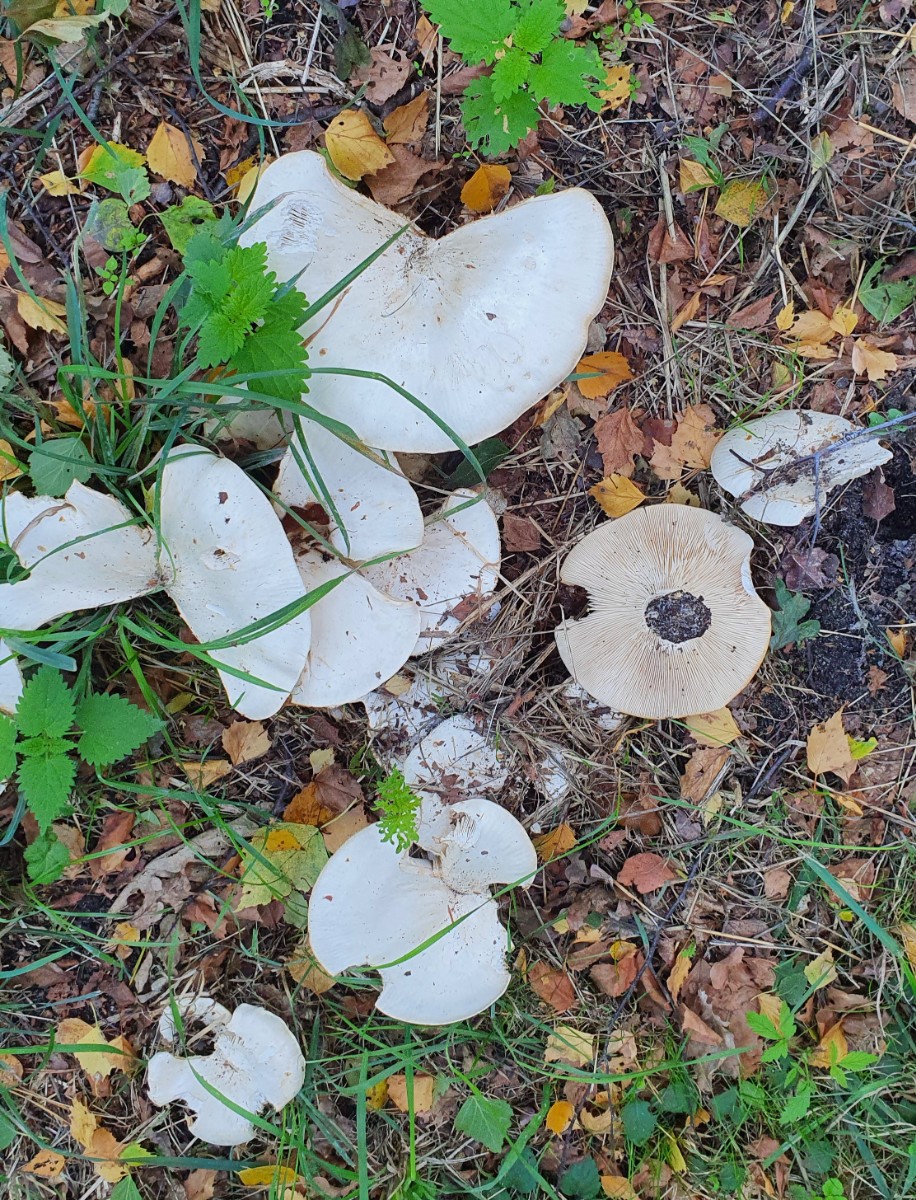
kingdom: Fungi
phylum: Basidiomycota
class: Agaricomycetes
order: Agaricales
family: Tricholomataceae
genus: Aspropaxillus
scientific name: Aspropaxillus giganteus
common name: kæmpe-tragtridderhat
